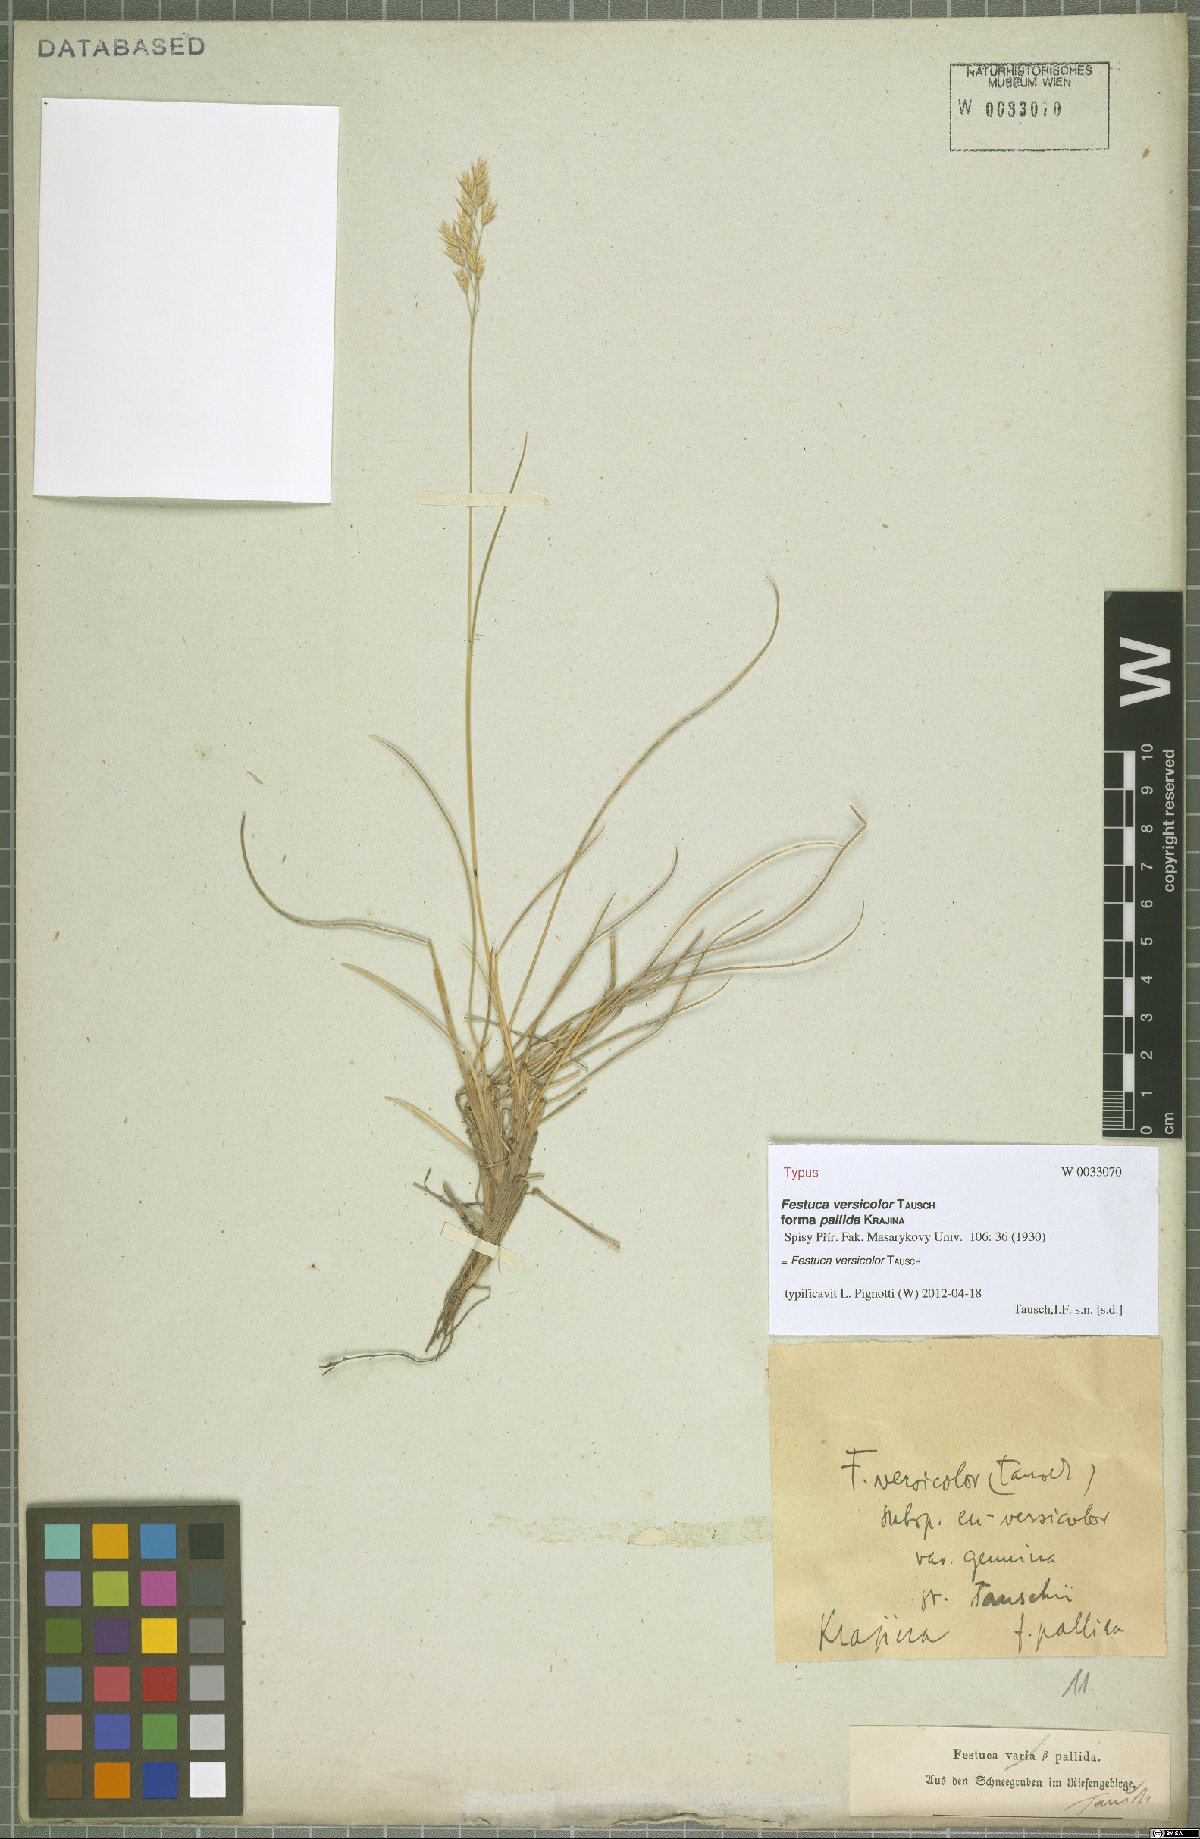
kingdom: Plantae
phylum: Tracheophyta
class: Liliopsida
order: Poales
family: Poaceae
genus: Festuca
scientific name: Festuca versicolor
